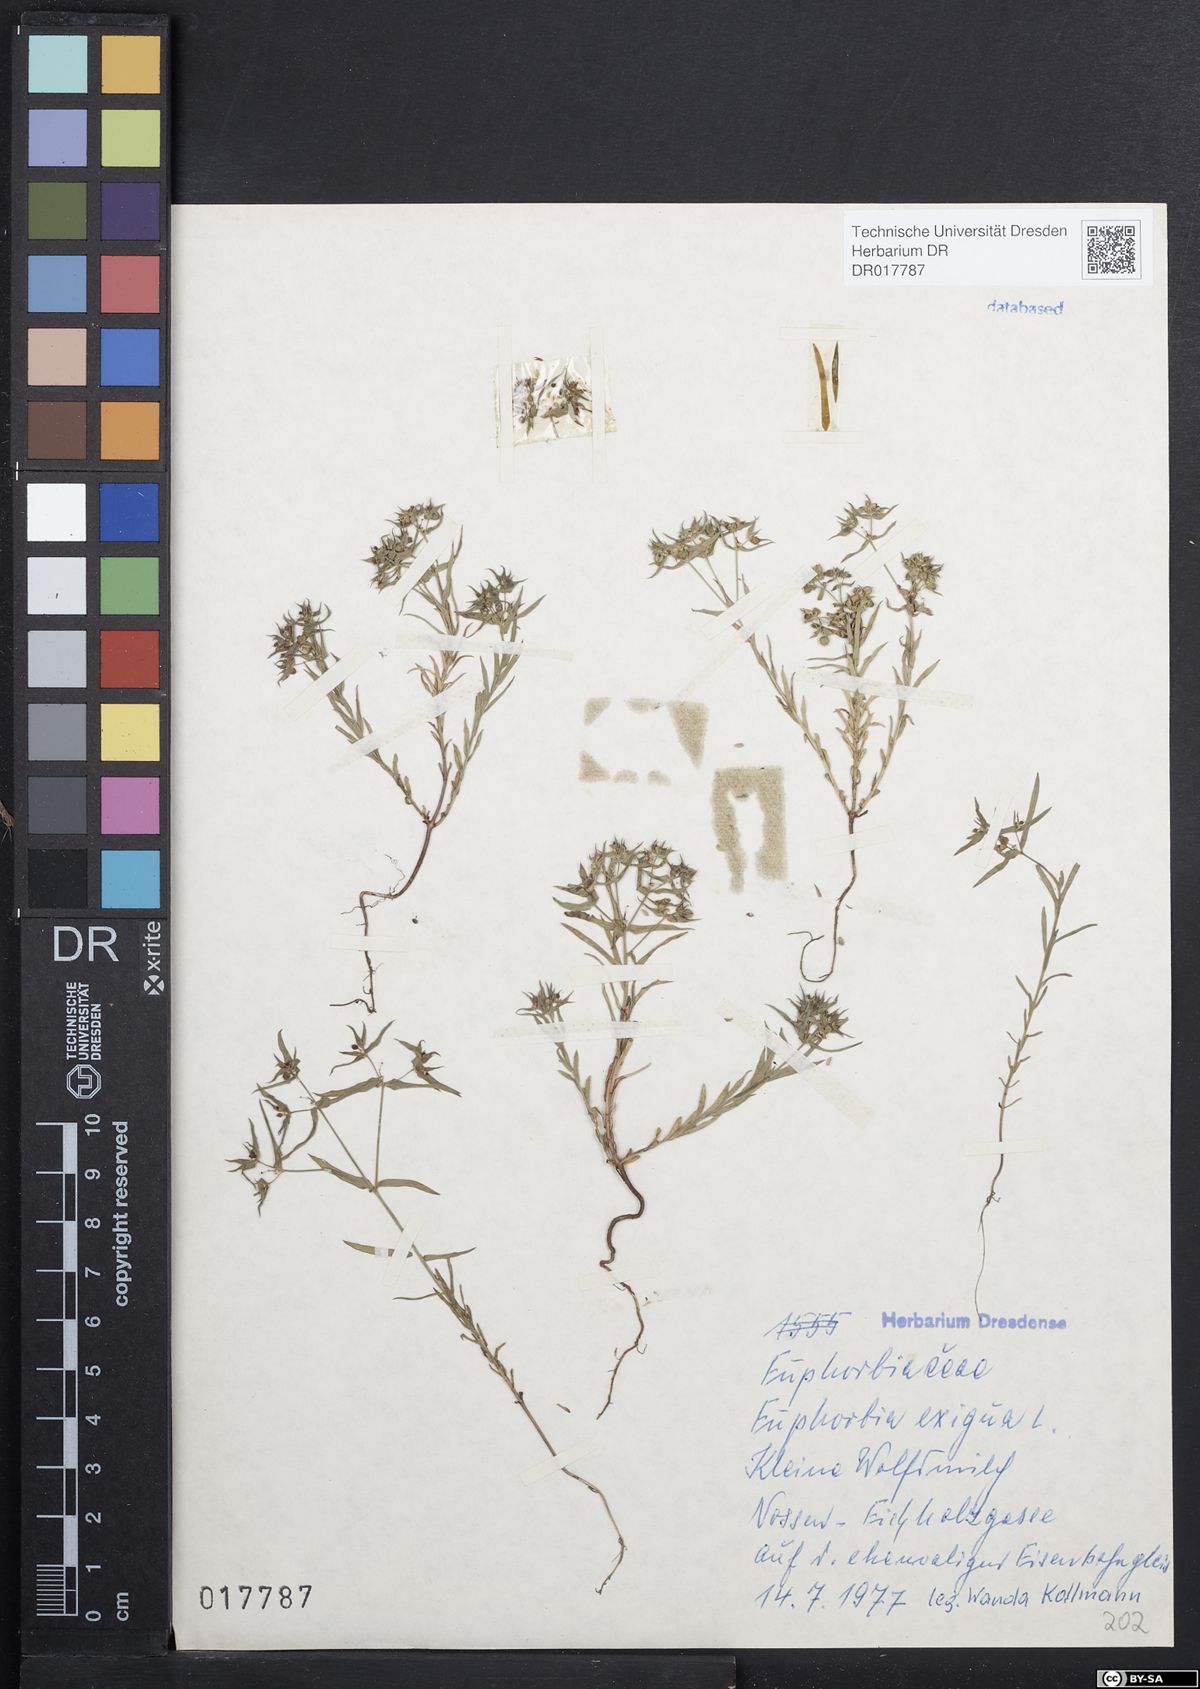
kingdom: Plantae
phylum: Tracheophyta
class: Magnoliopsida
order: Malpighiales
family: Euphorbiaceae
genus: Euphorbia
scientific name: Euphorbia exigua
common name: Dwarf spurge
